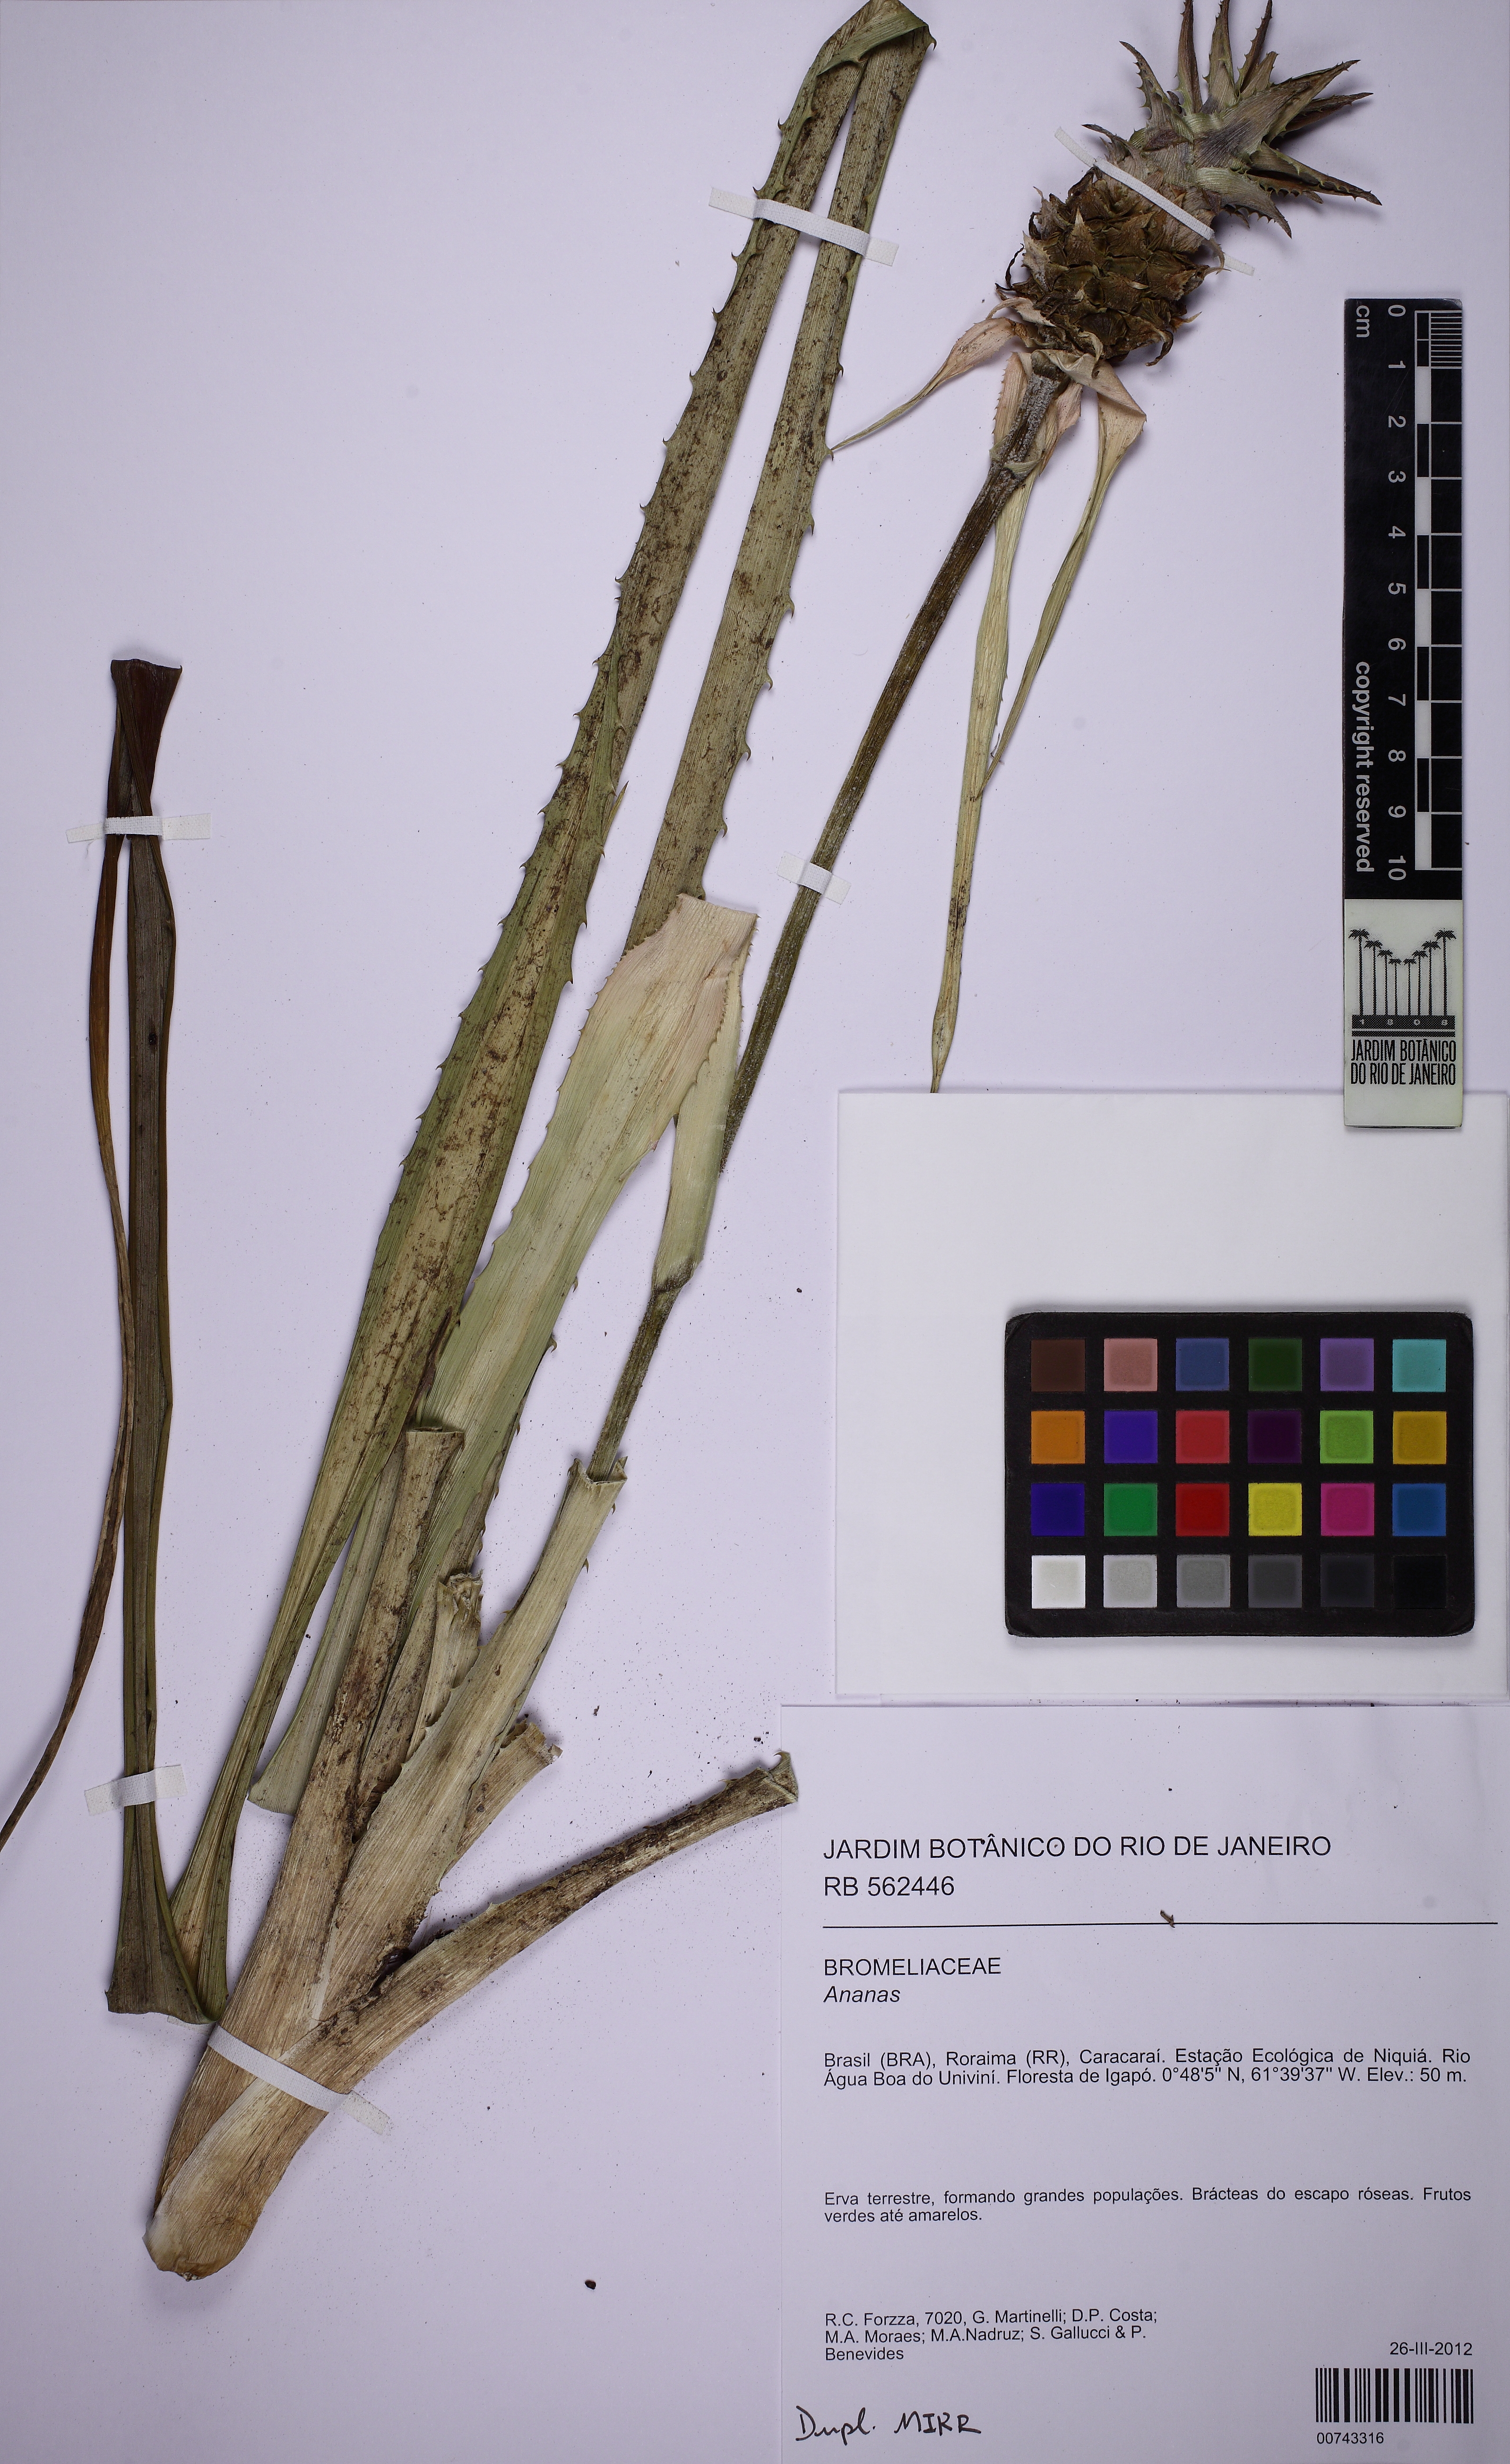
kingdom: Plantae
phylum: Tracheophyta
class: Liliopsida
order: Poales
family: Bromeliaceae
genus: Ananas
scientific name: Ananas
